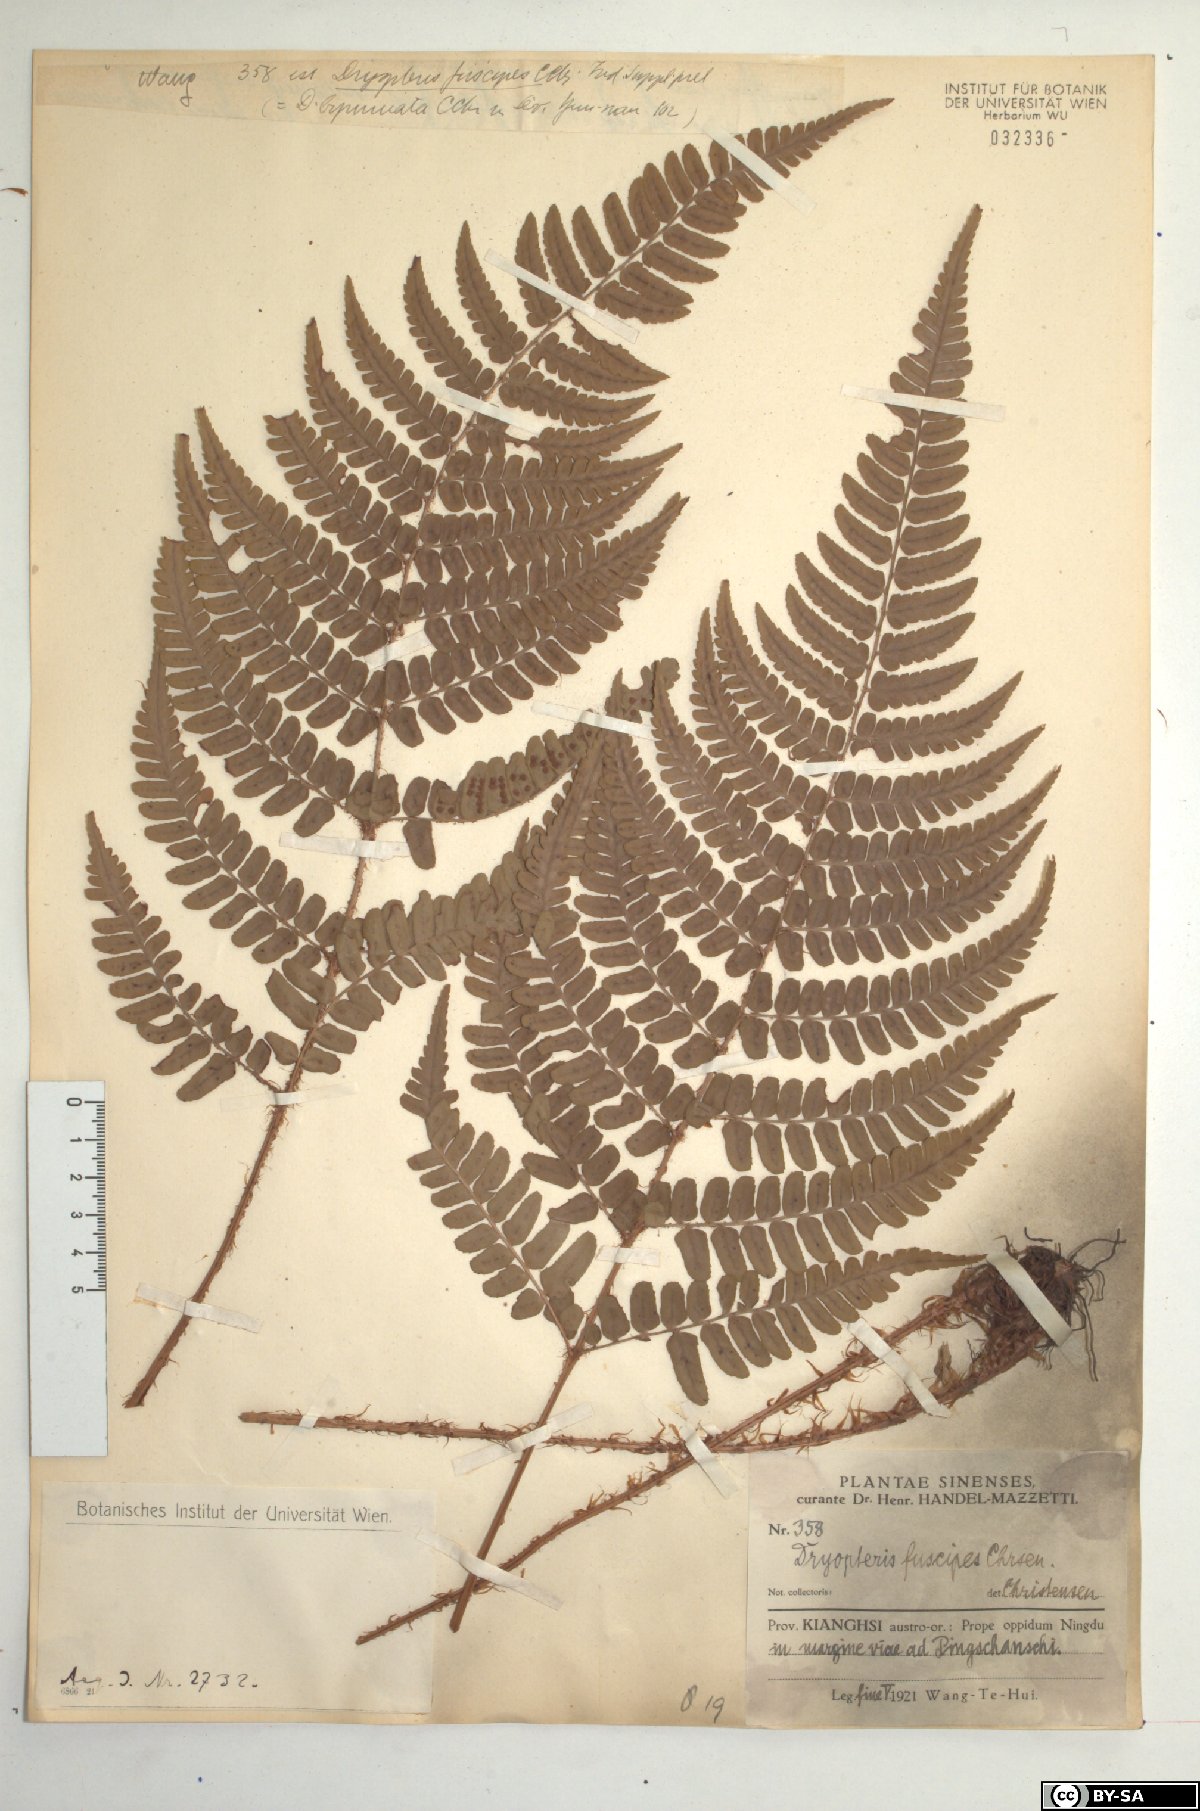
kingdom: Plantae
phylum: Tracheophyta
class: Polypodiopsida
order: Polypodiales
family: Dryopteridaceae
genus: Dryopteris
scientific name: Dryopteris fuscipes
